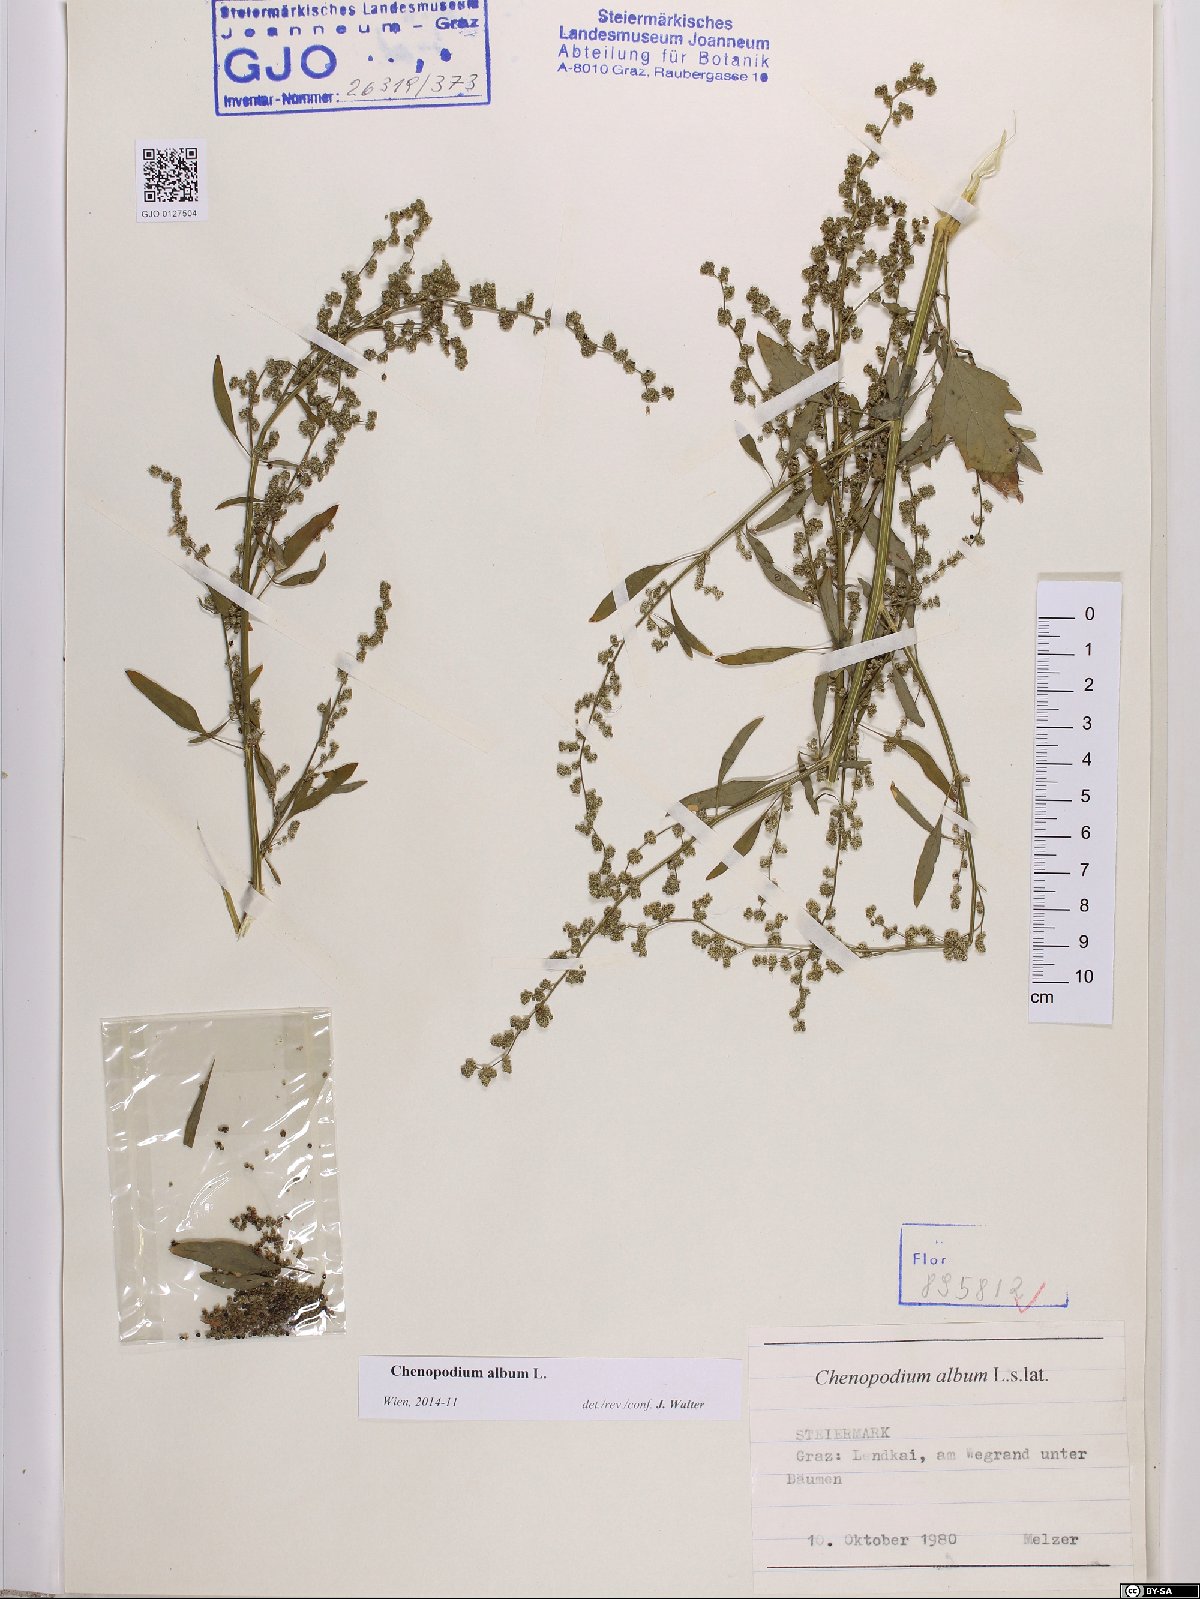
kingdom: Plantae
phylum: Tracheophyta
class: Magnoliopsida
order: Caryophyllales
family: Amaranthaceae
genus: Chenopodium
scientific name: Chenopodium album
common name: Fat-hen
